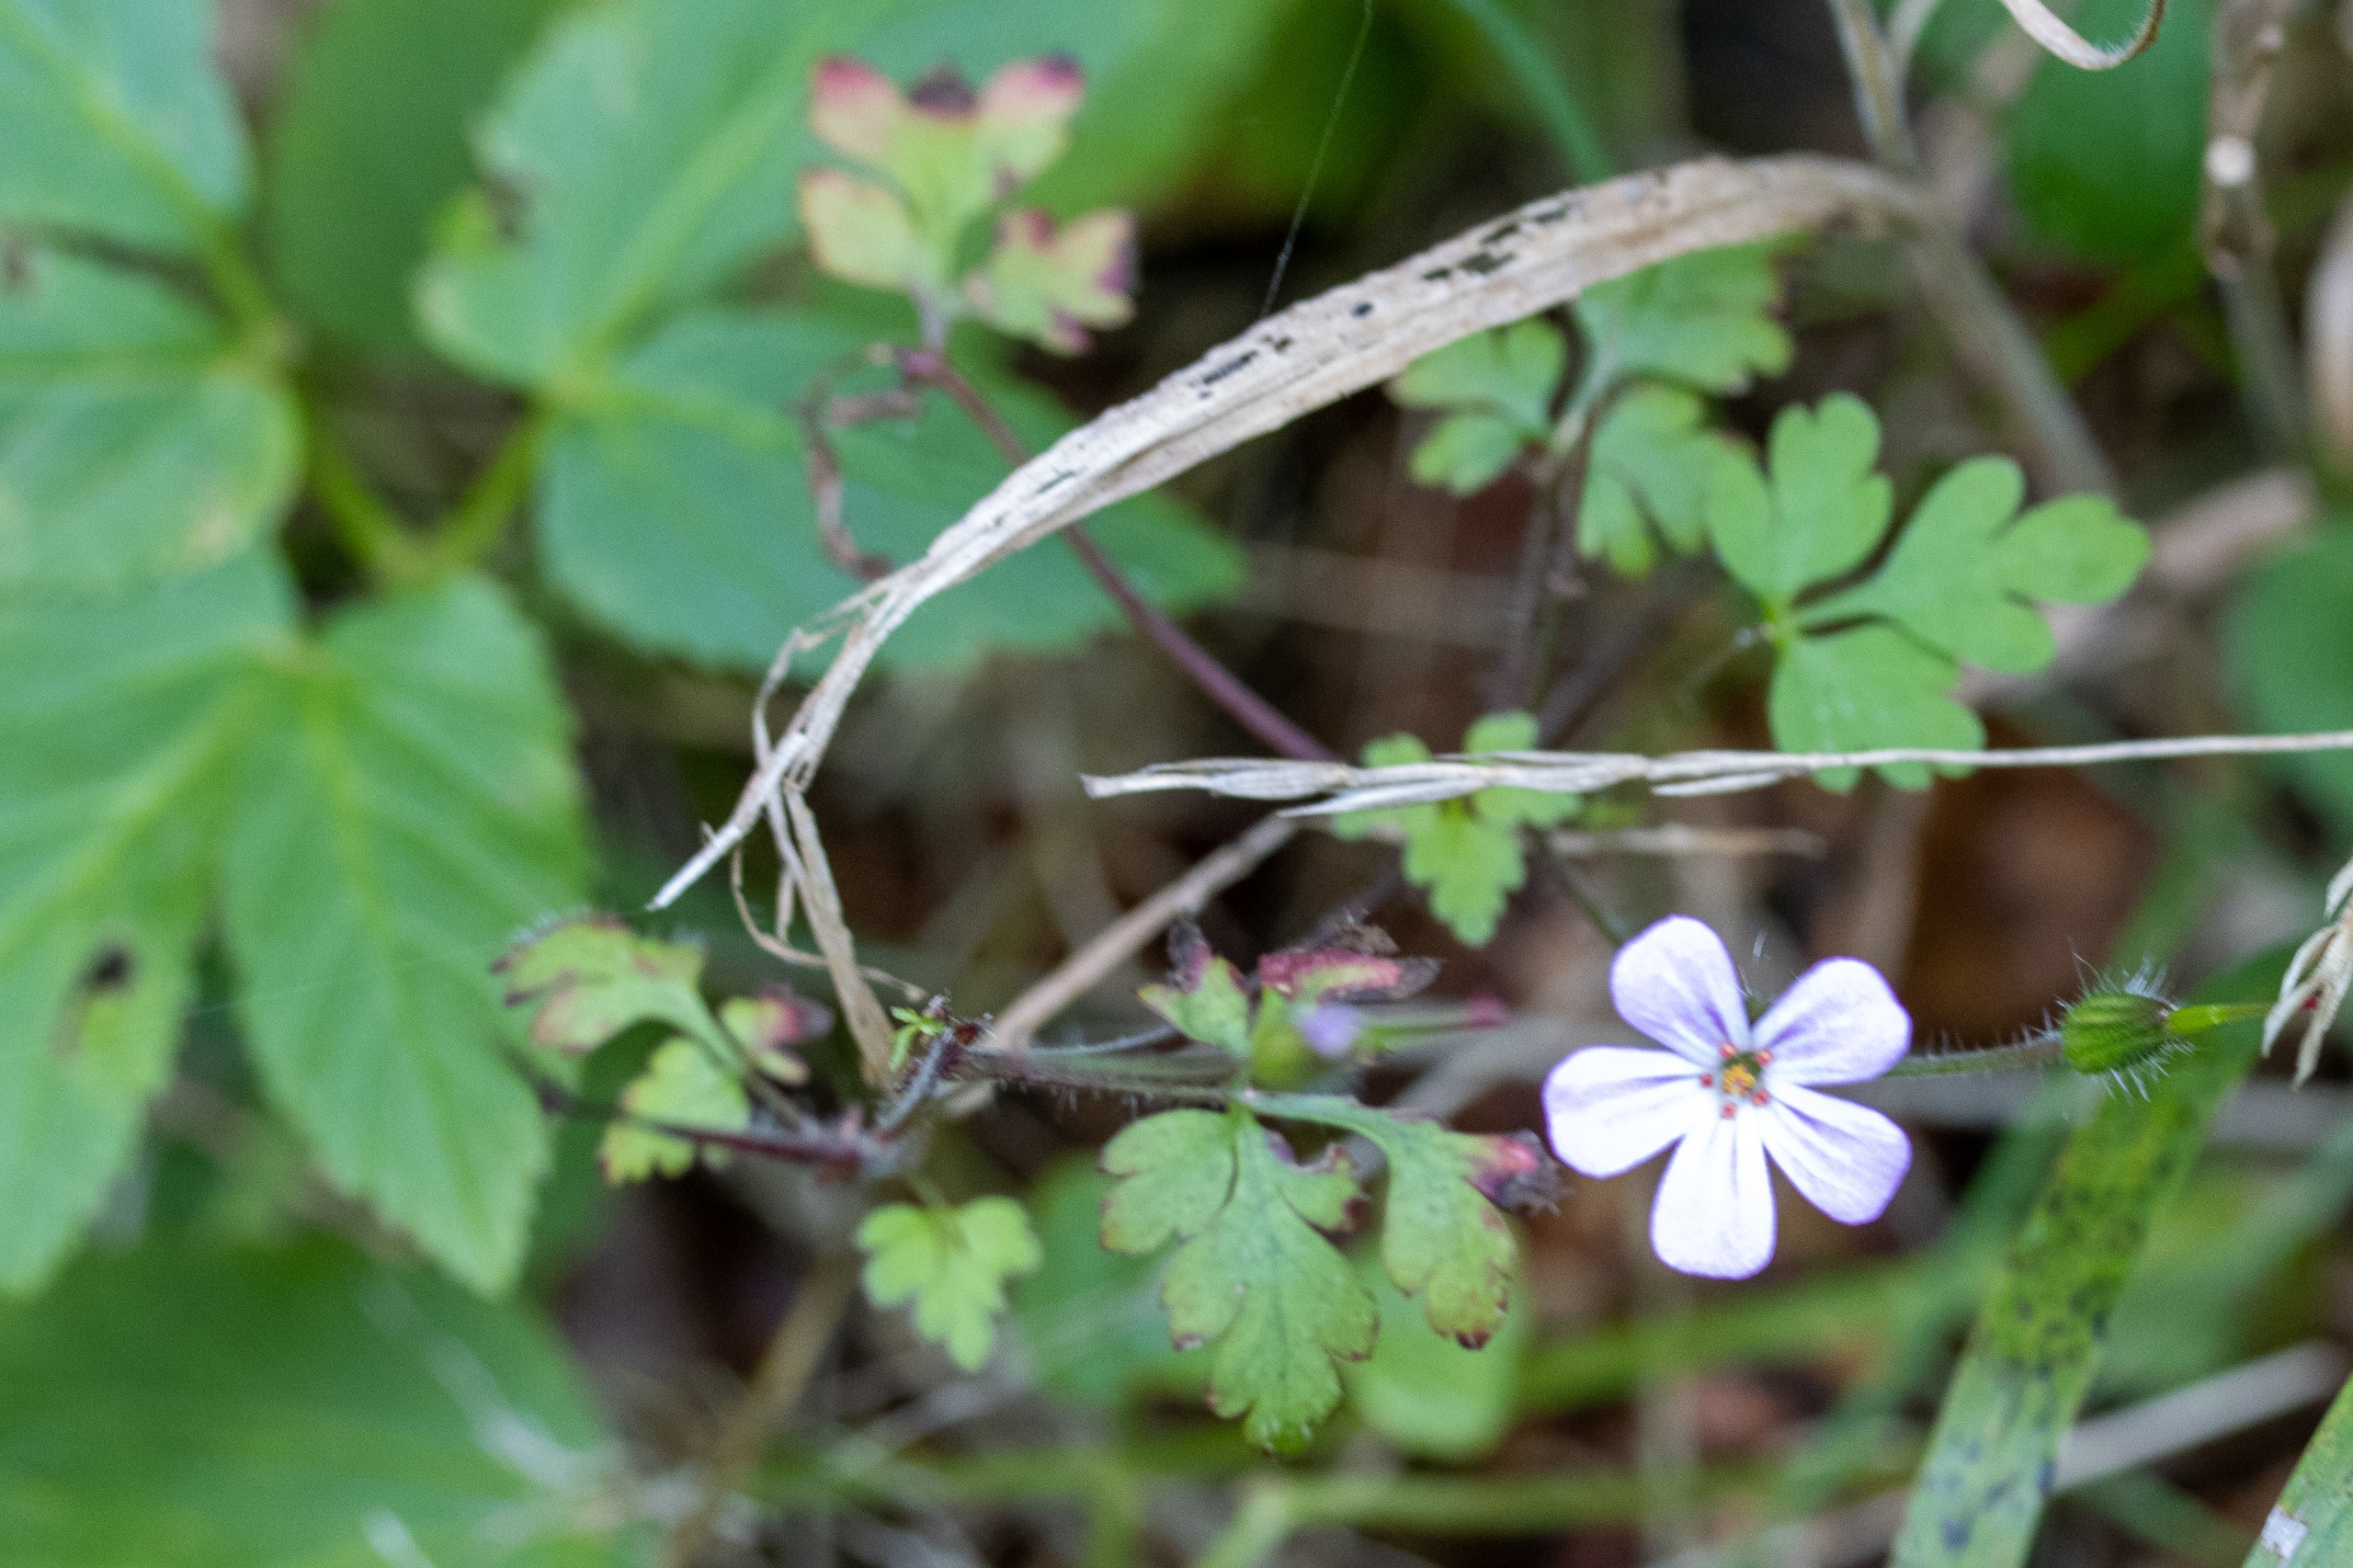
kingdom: Plantae
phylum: Tracheophyta
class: Magnoliopsida
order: Geraniales
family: Geraniaceae
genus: Geranium
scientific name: Geranium robertianum
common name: Stinkende storkenæb
